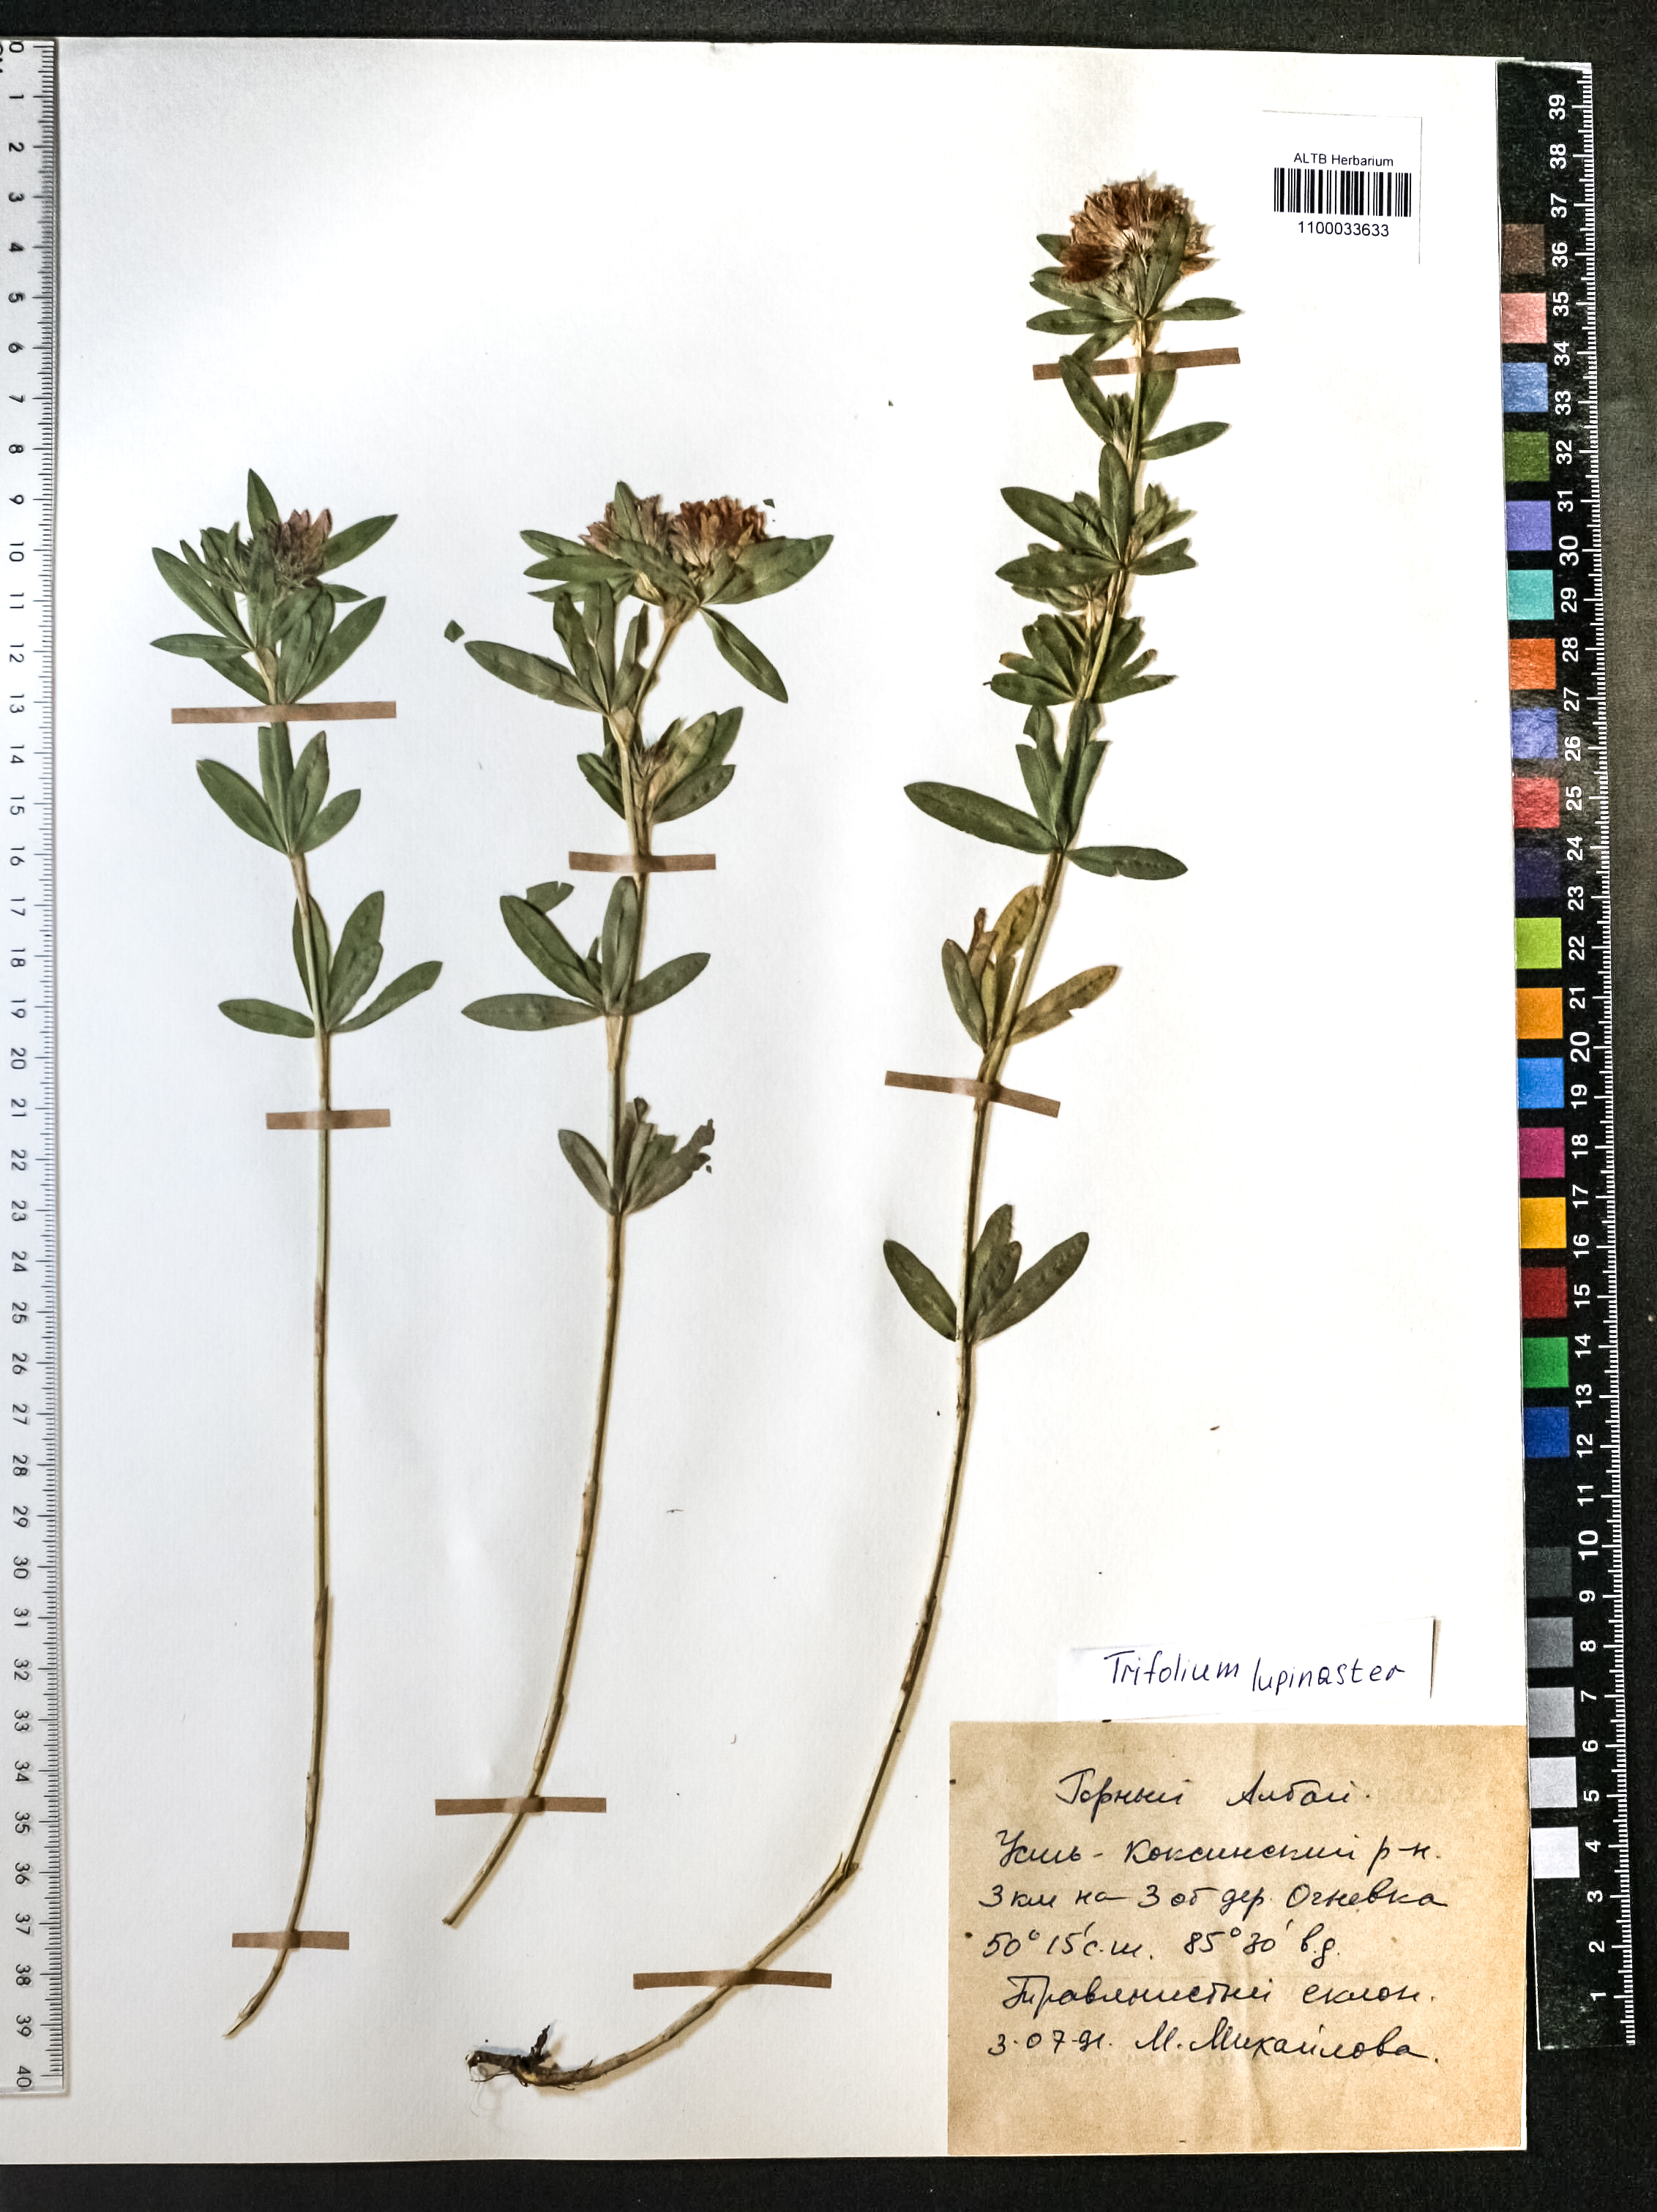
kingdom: Plantae
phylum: Tracheophyta
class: Magnoliopsida
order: Fabales
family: Fabaceae
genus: Trifolium
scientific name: Trifolium lupinaster
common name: Lupine clover
